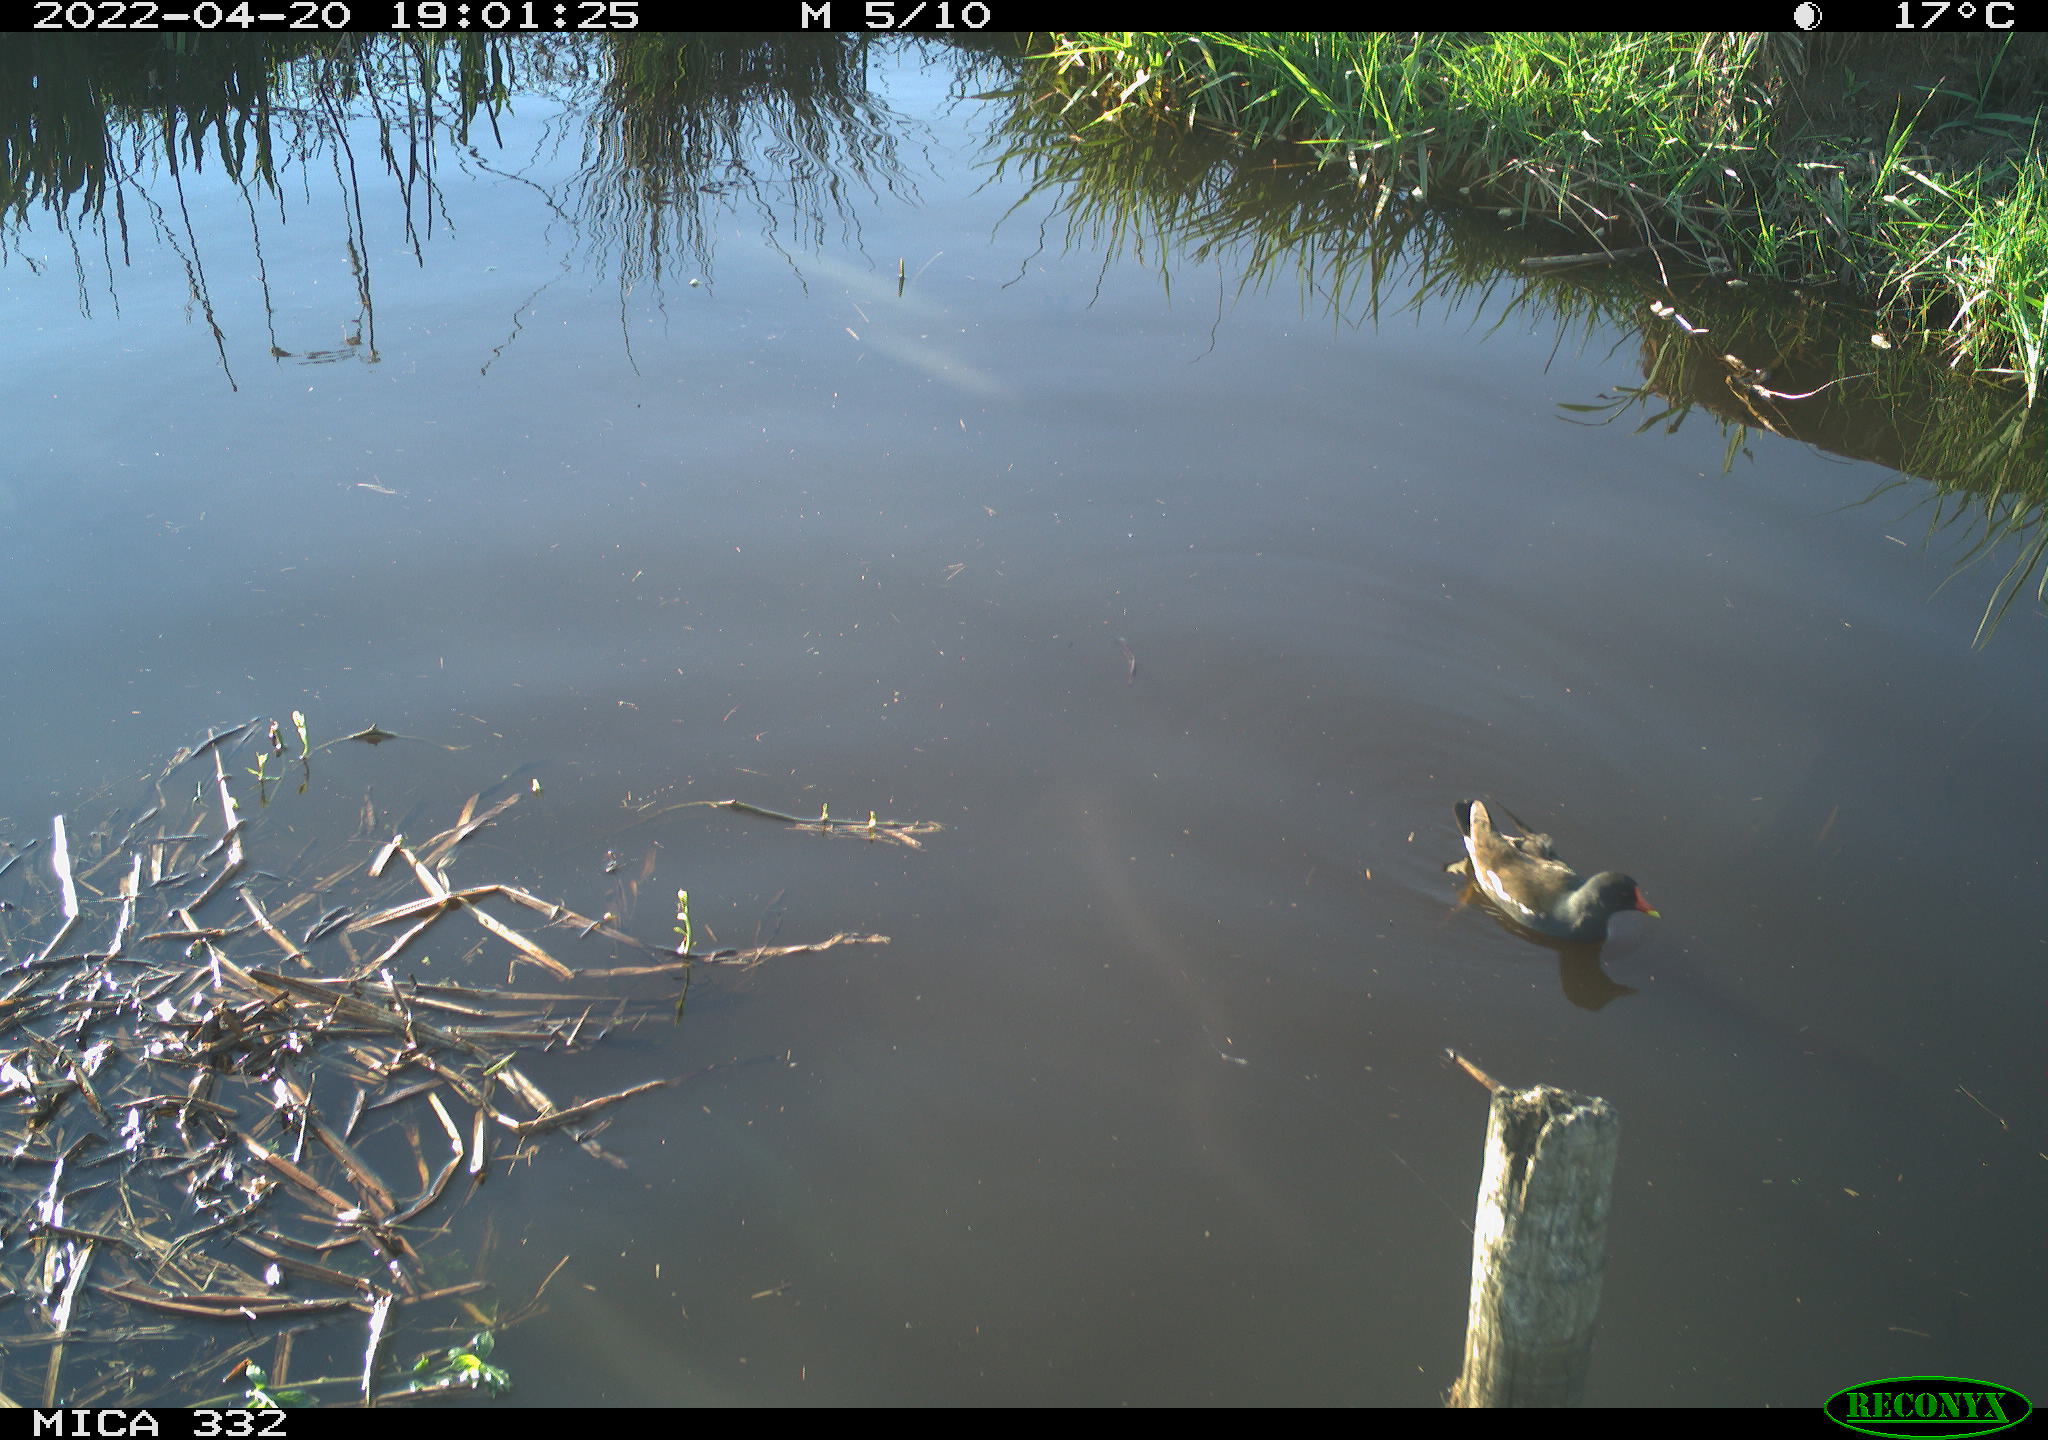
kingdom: Animalia
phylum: Chordata
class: Aves
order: Gruiformes
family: Rallidae
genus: Gallinula
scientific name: Gallinula chloropus
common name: Common moorhen
